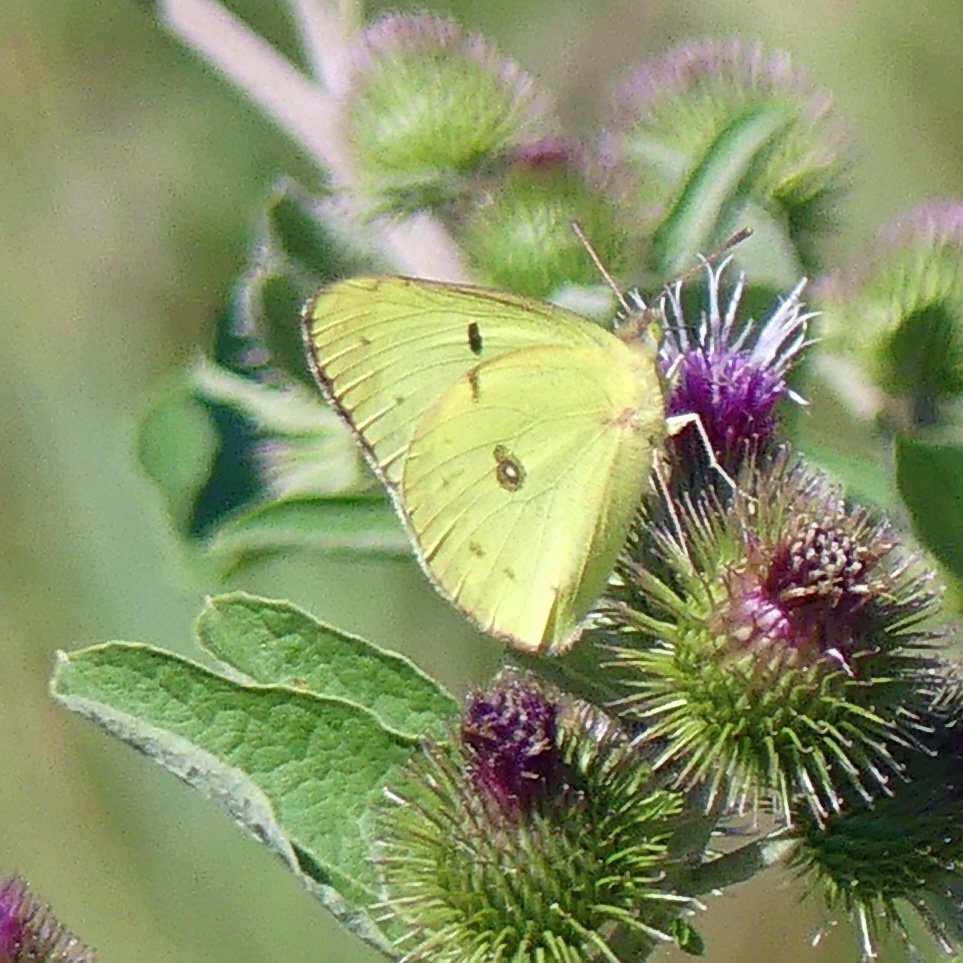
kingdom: Animalia
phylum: Arthropoda
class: Insecta
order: Lepidoptera
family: Pieridae
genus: Colias
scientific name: Colias philodice
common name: Clouded Sulphur
